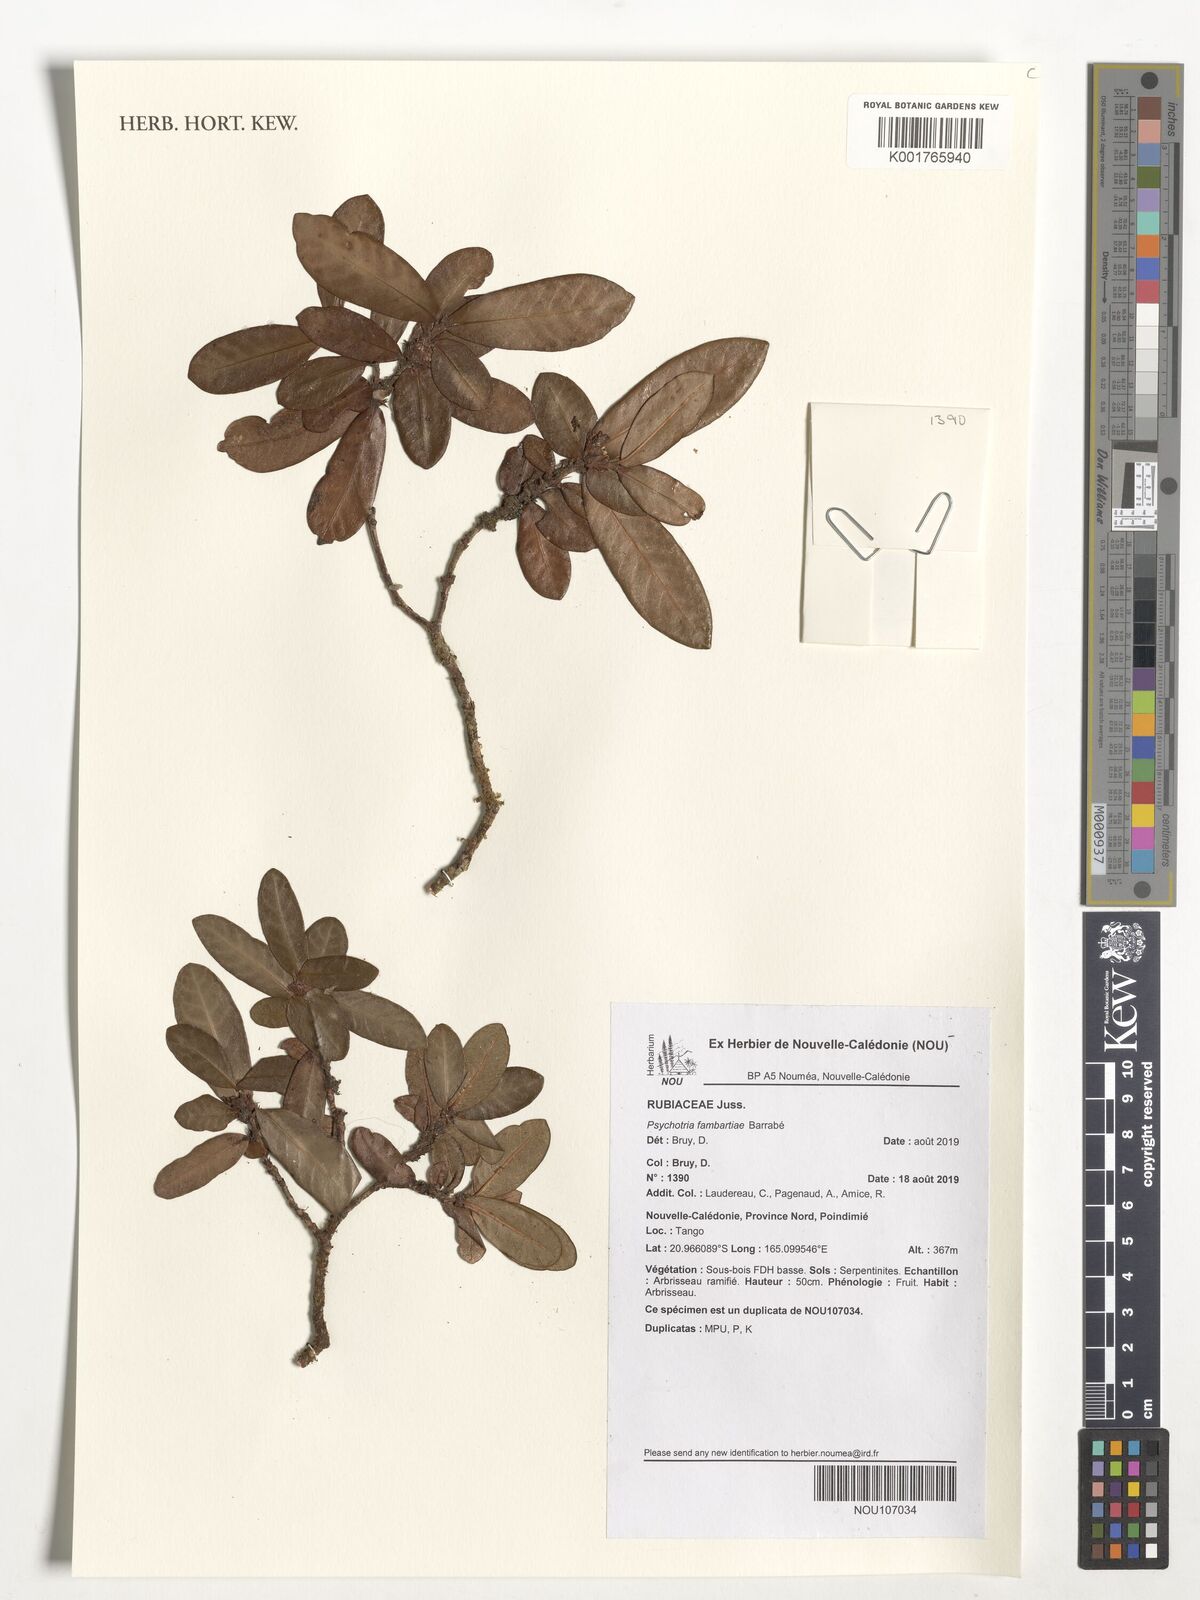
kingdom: Plantae
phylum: Tracheophyta
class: Magnoliopsida
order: Gentianales
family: Rubiaceae
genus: Psychotria
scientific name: Psychotria fambartiae
